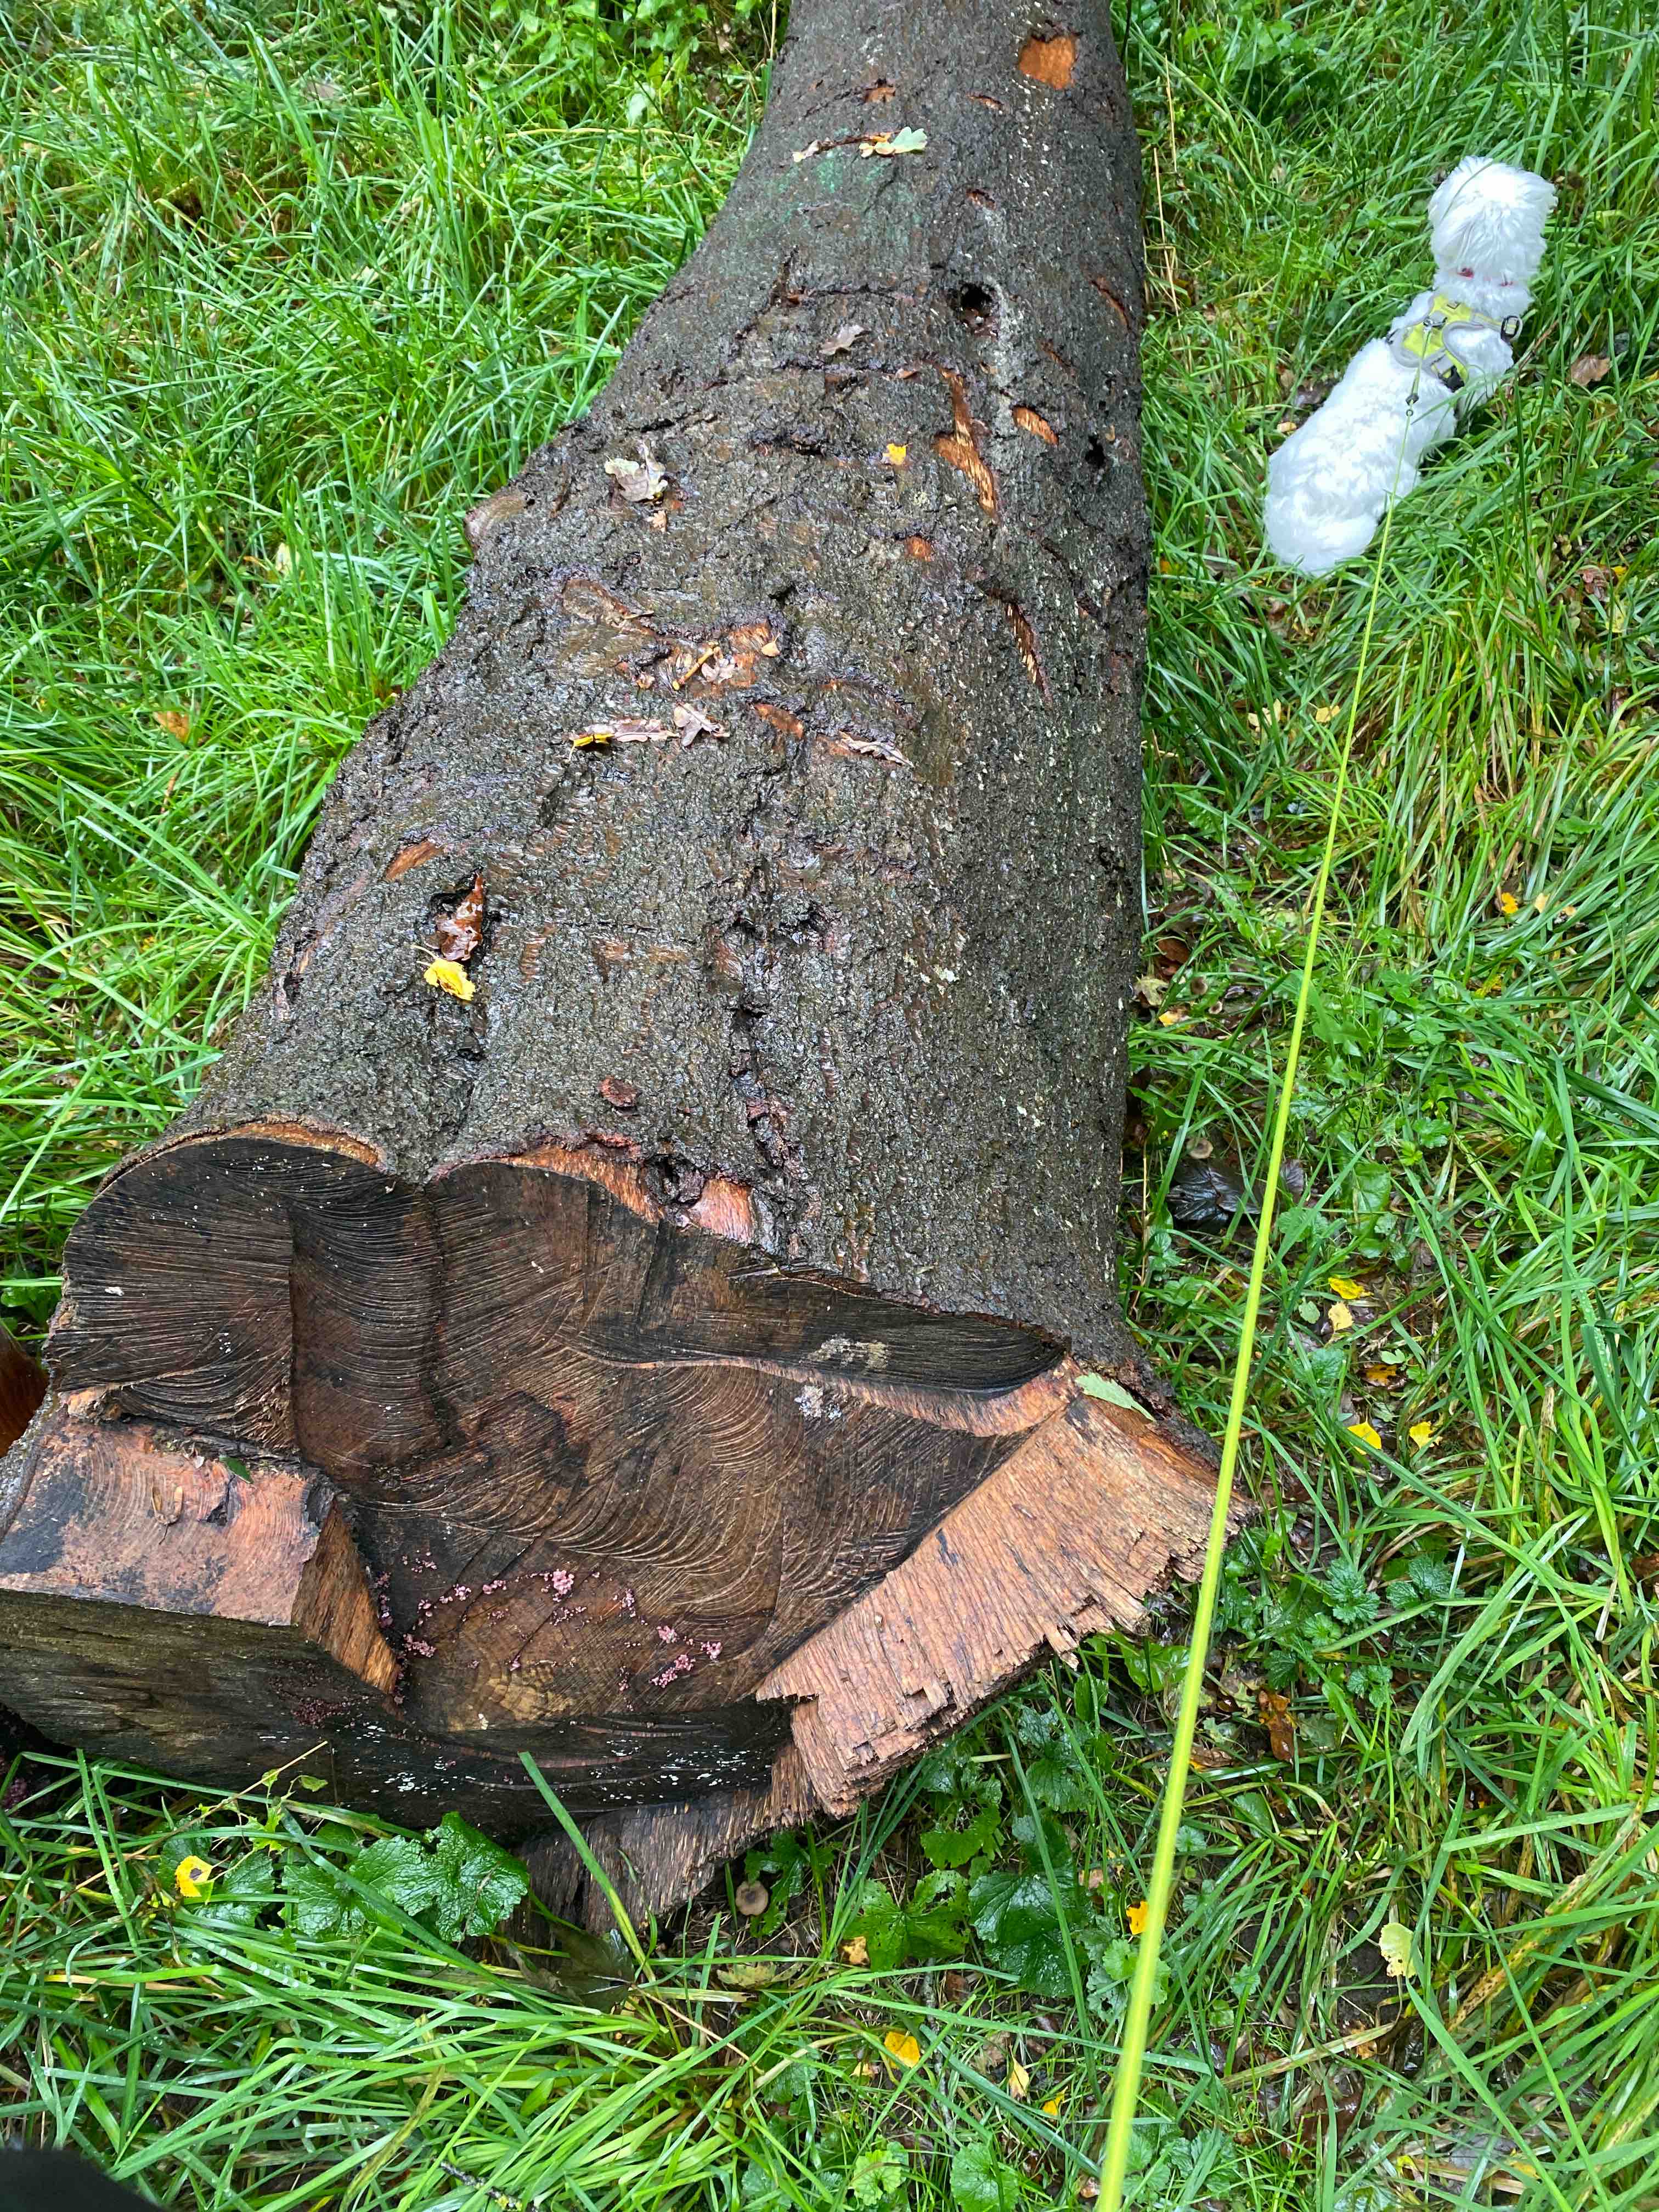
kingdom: Fungi
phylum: Ascomycota
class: Leotiomycetes
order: Helotiales
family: Gelatinodiscaceae
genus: Ascocoryne
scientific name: Ascocoryne sarcoides
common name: rødlilla sejskive
